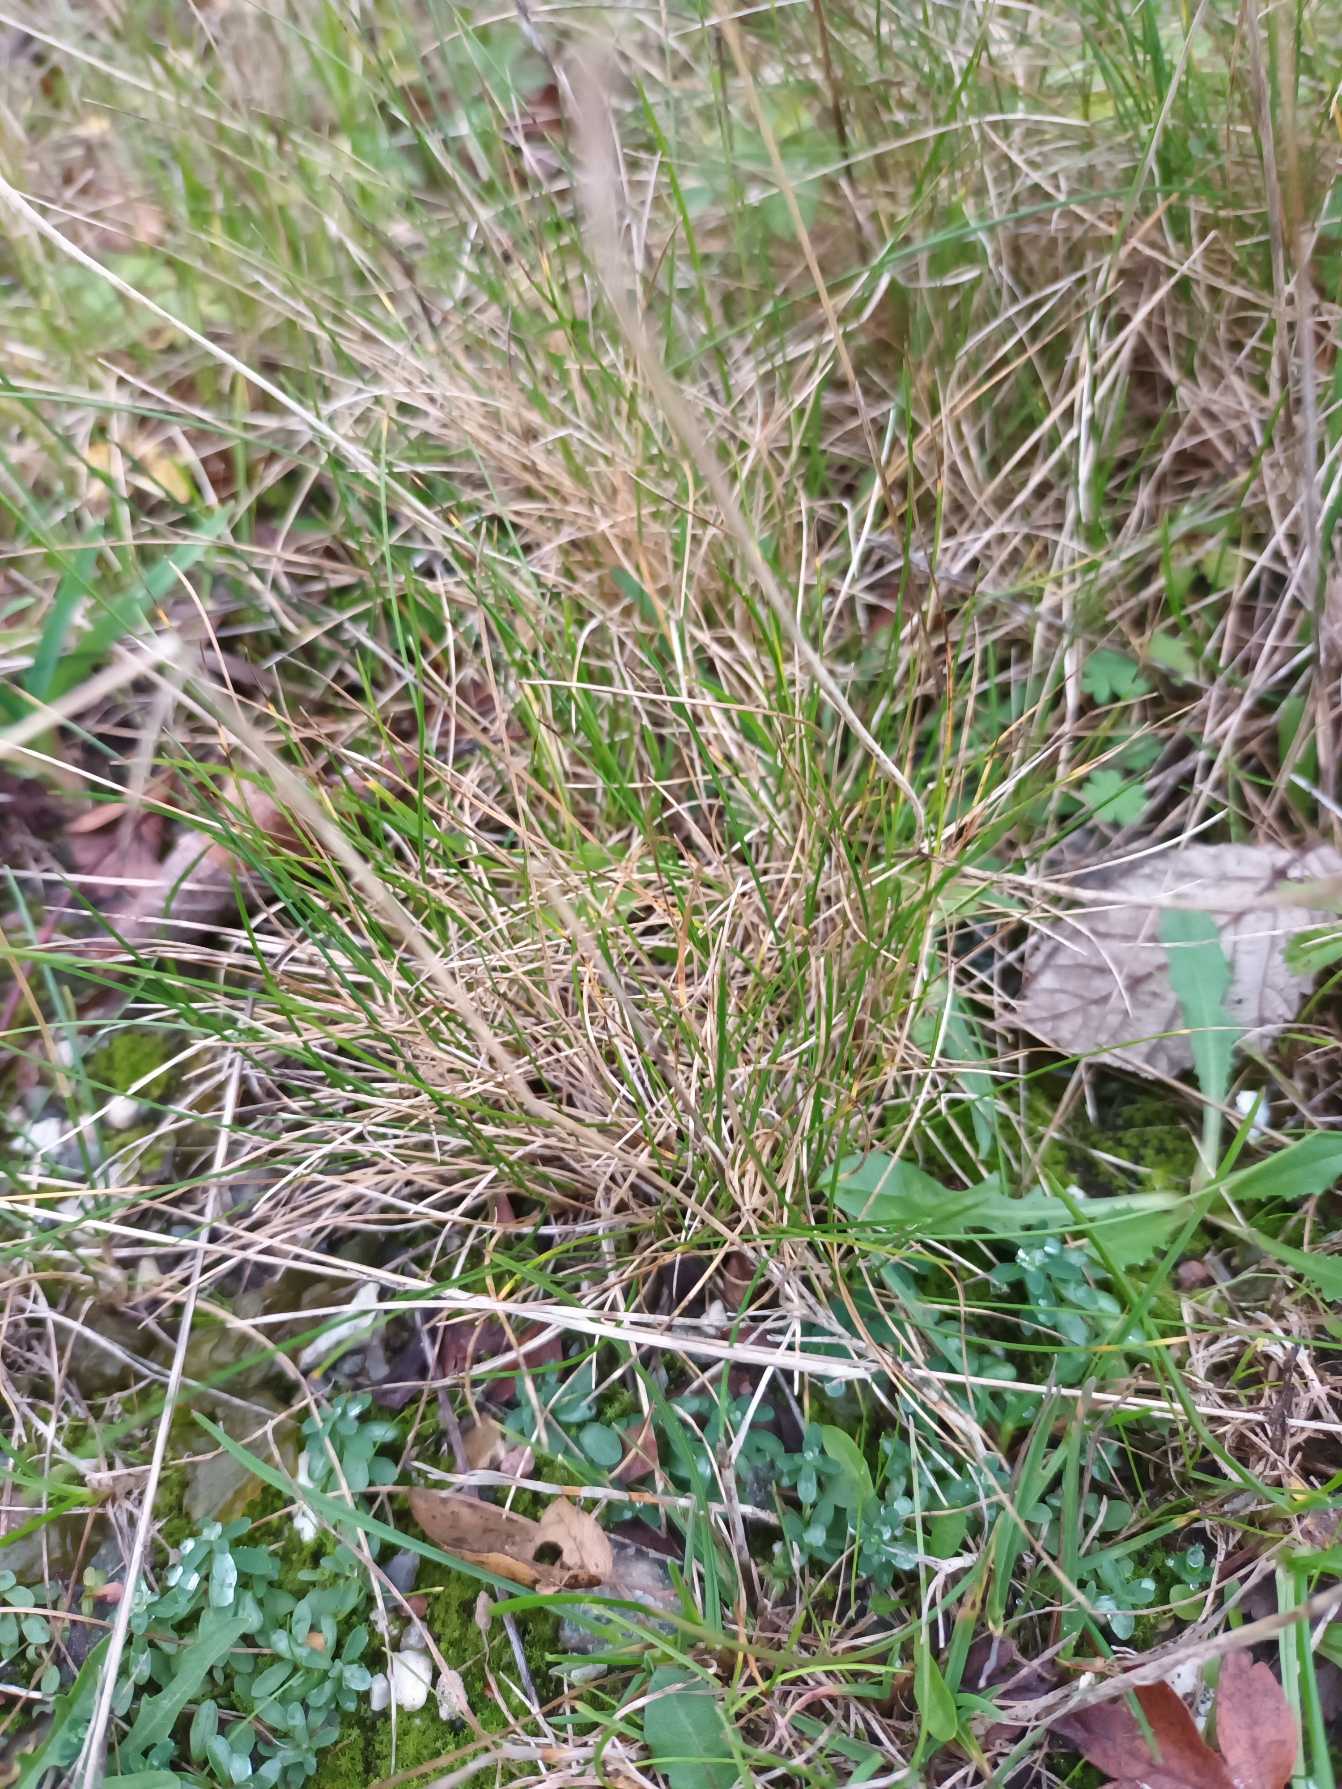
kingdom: Plantae
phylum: Tracheophyta
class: Liliopsida
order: Poales
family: Poaceae
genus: Festuca
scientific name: Festuca trachyphylla
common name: Bakke-svingel
